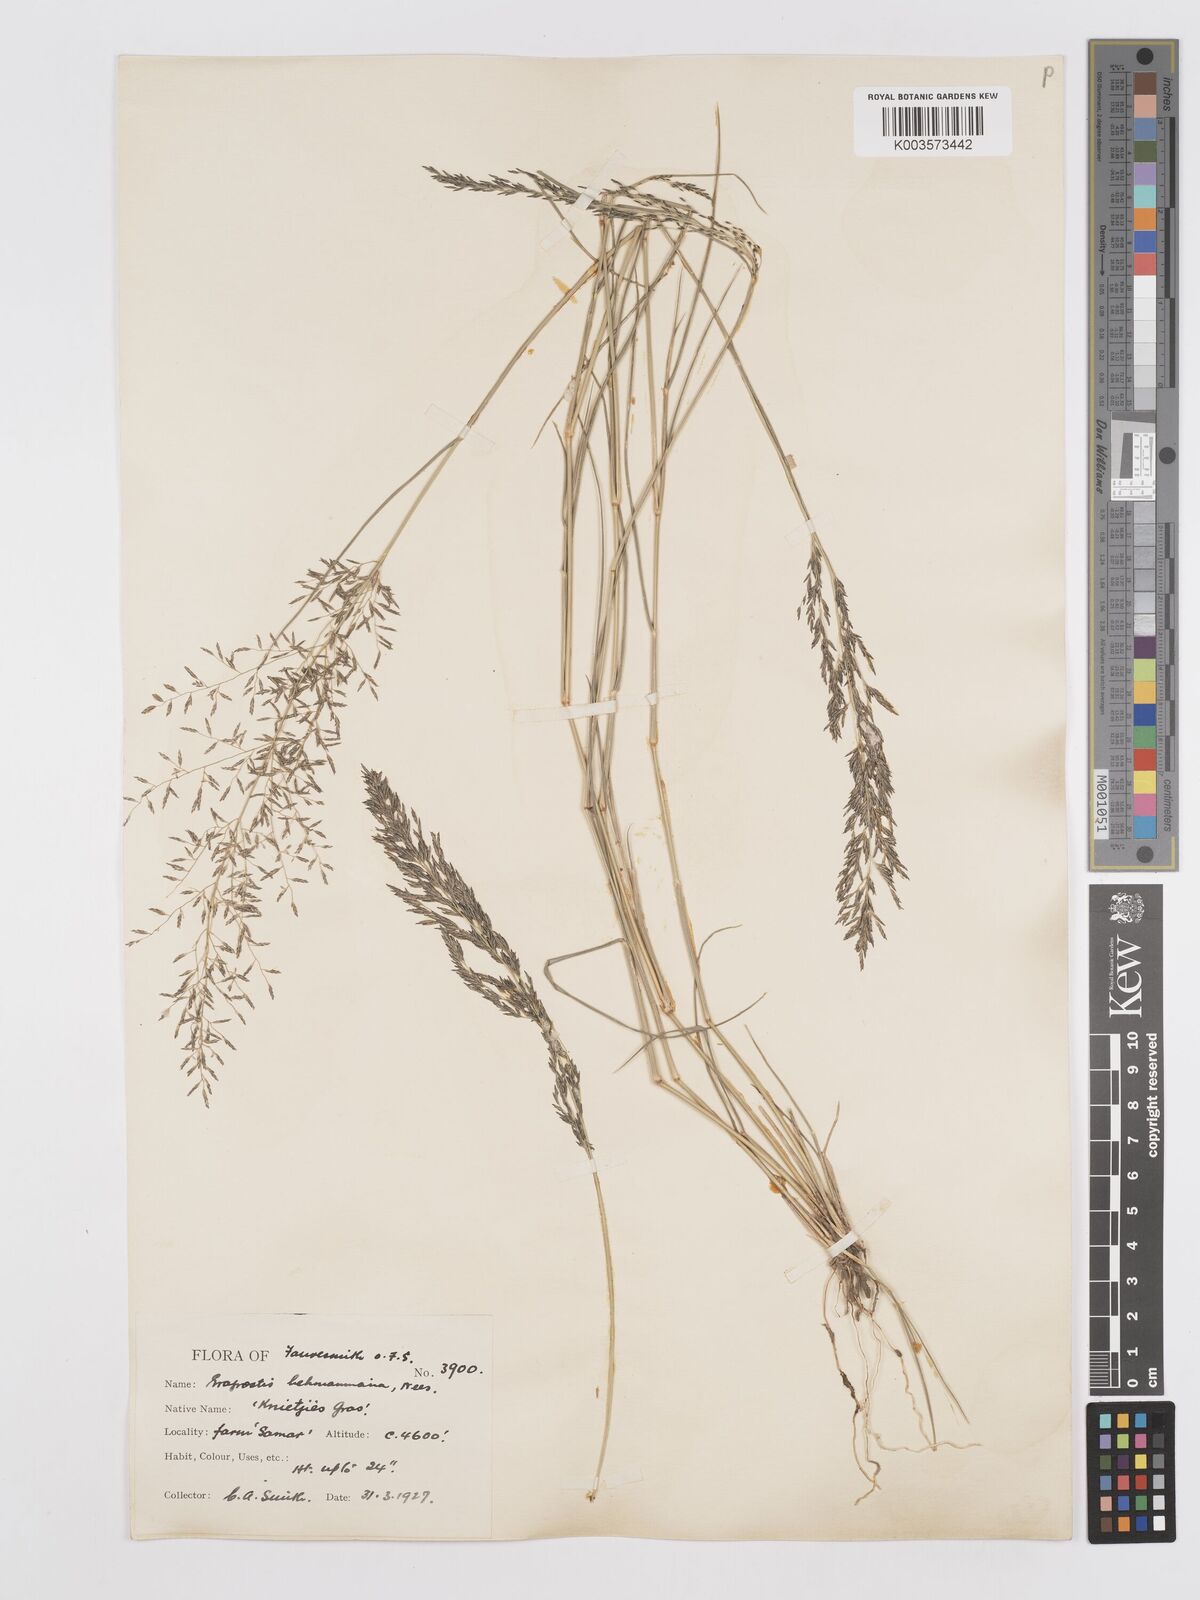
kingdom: Plantae
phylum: Tracheophyta
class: Liliopsida
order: Poales
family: Poaceae
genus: Eragrostis
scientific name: Eragrostis lehmanniana
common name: Lehmann lovegrass
